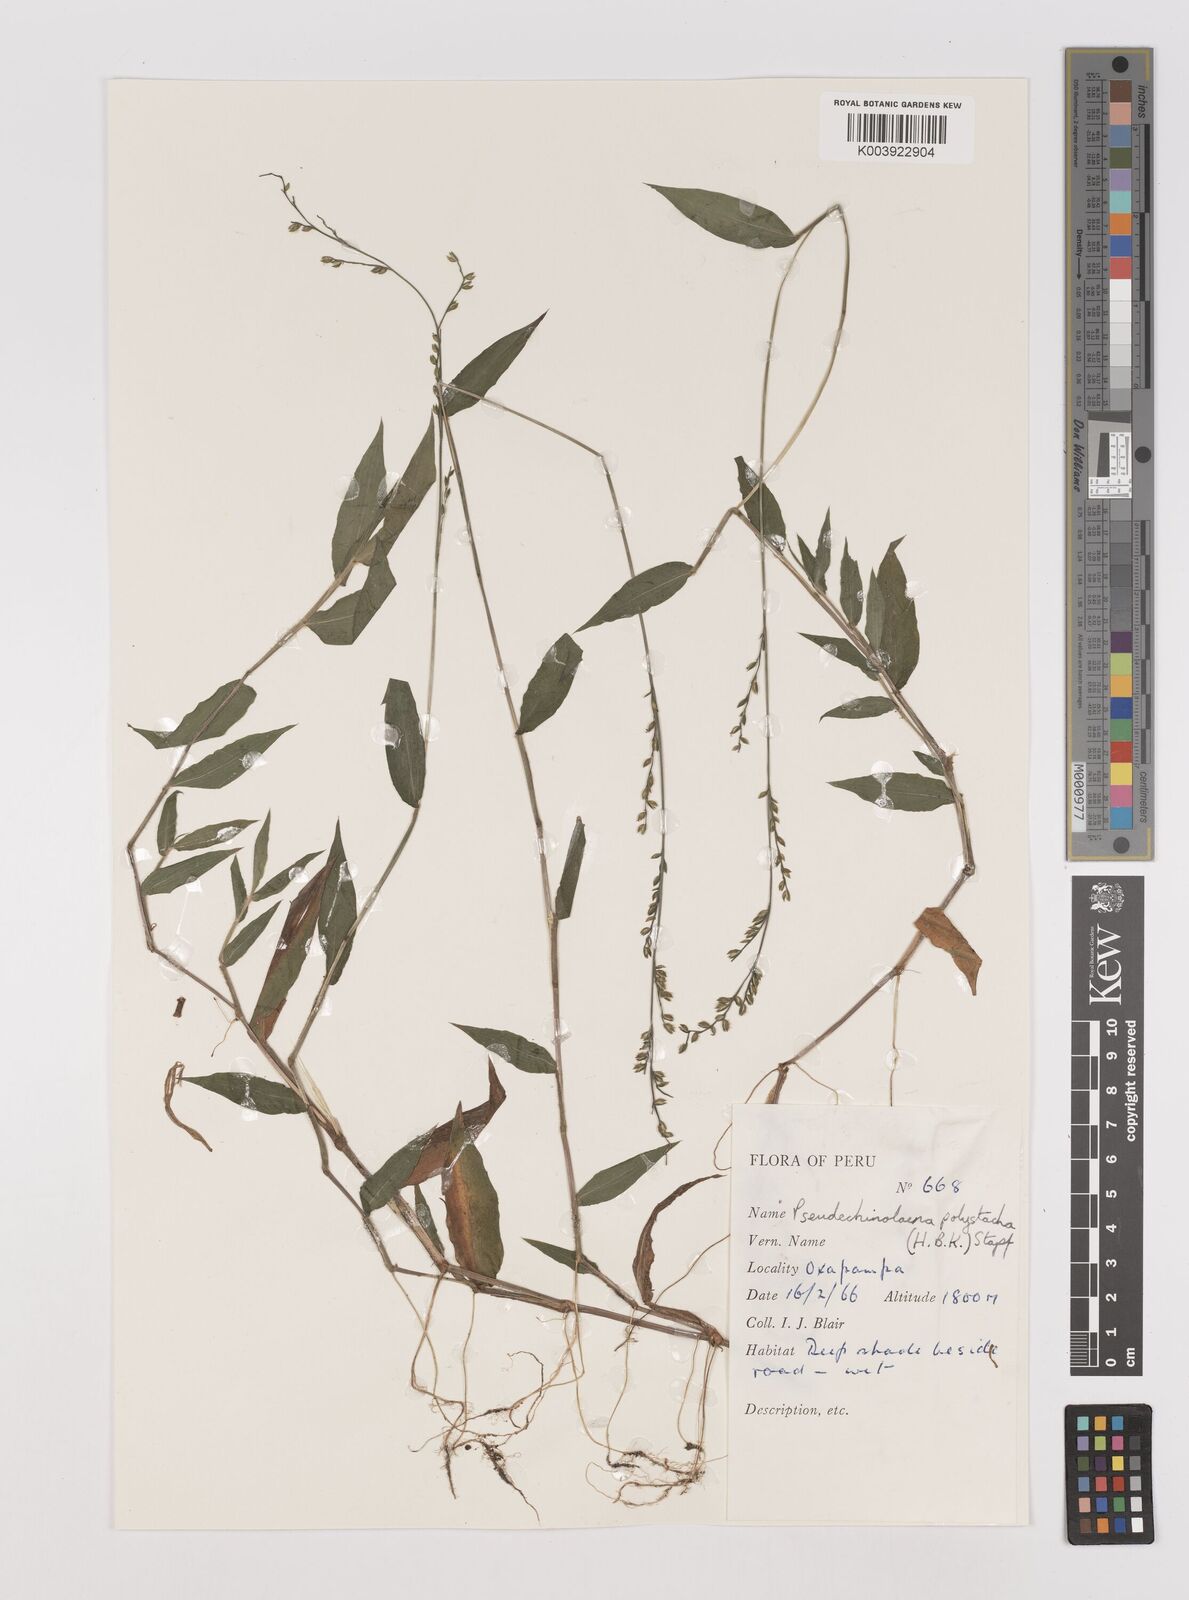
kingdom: Plantae
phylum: Tracheophyta
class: Liliopsida
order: Poales
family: Poaceae
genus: Pseudechinolaena
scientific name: Pseudechinolaena polystachya
